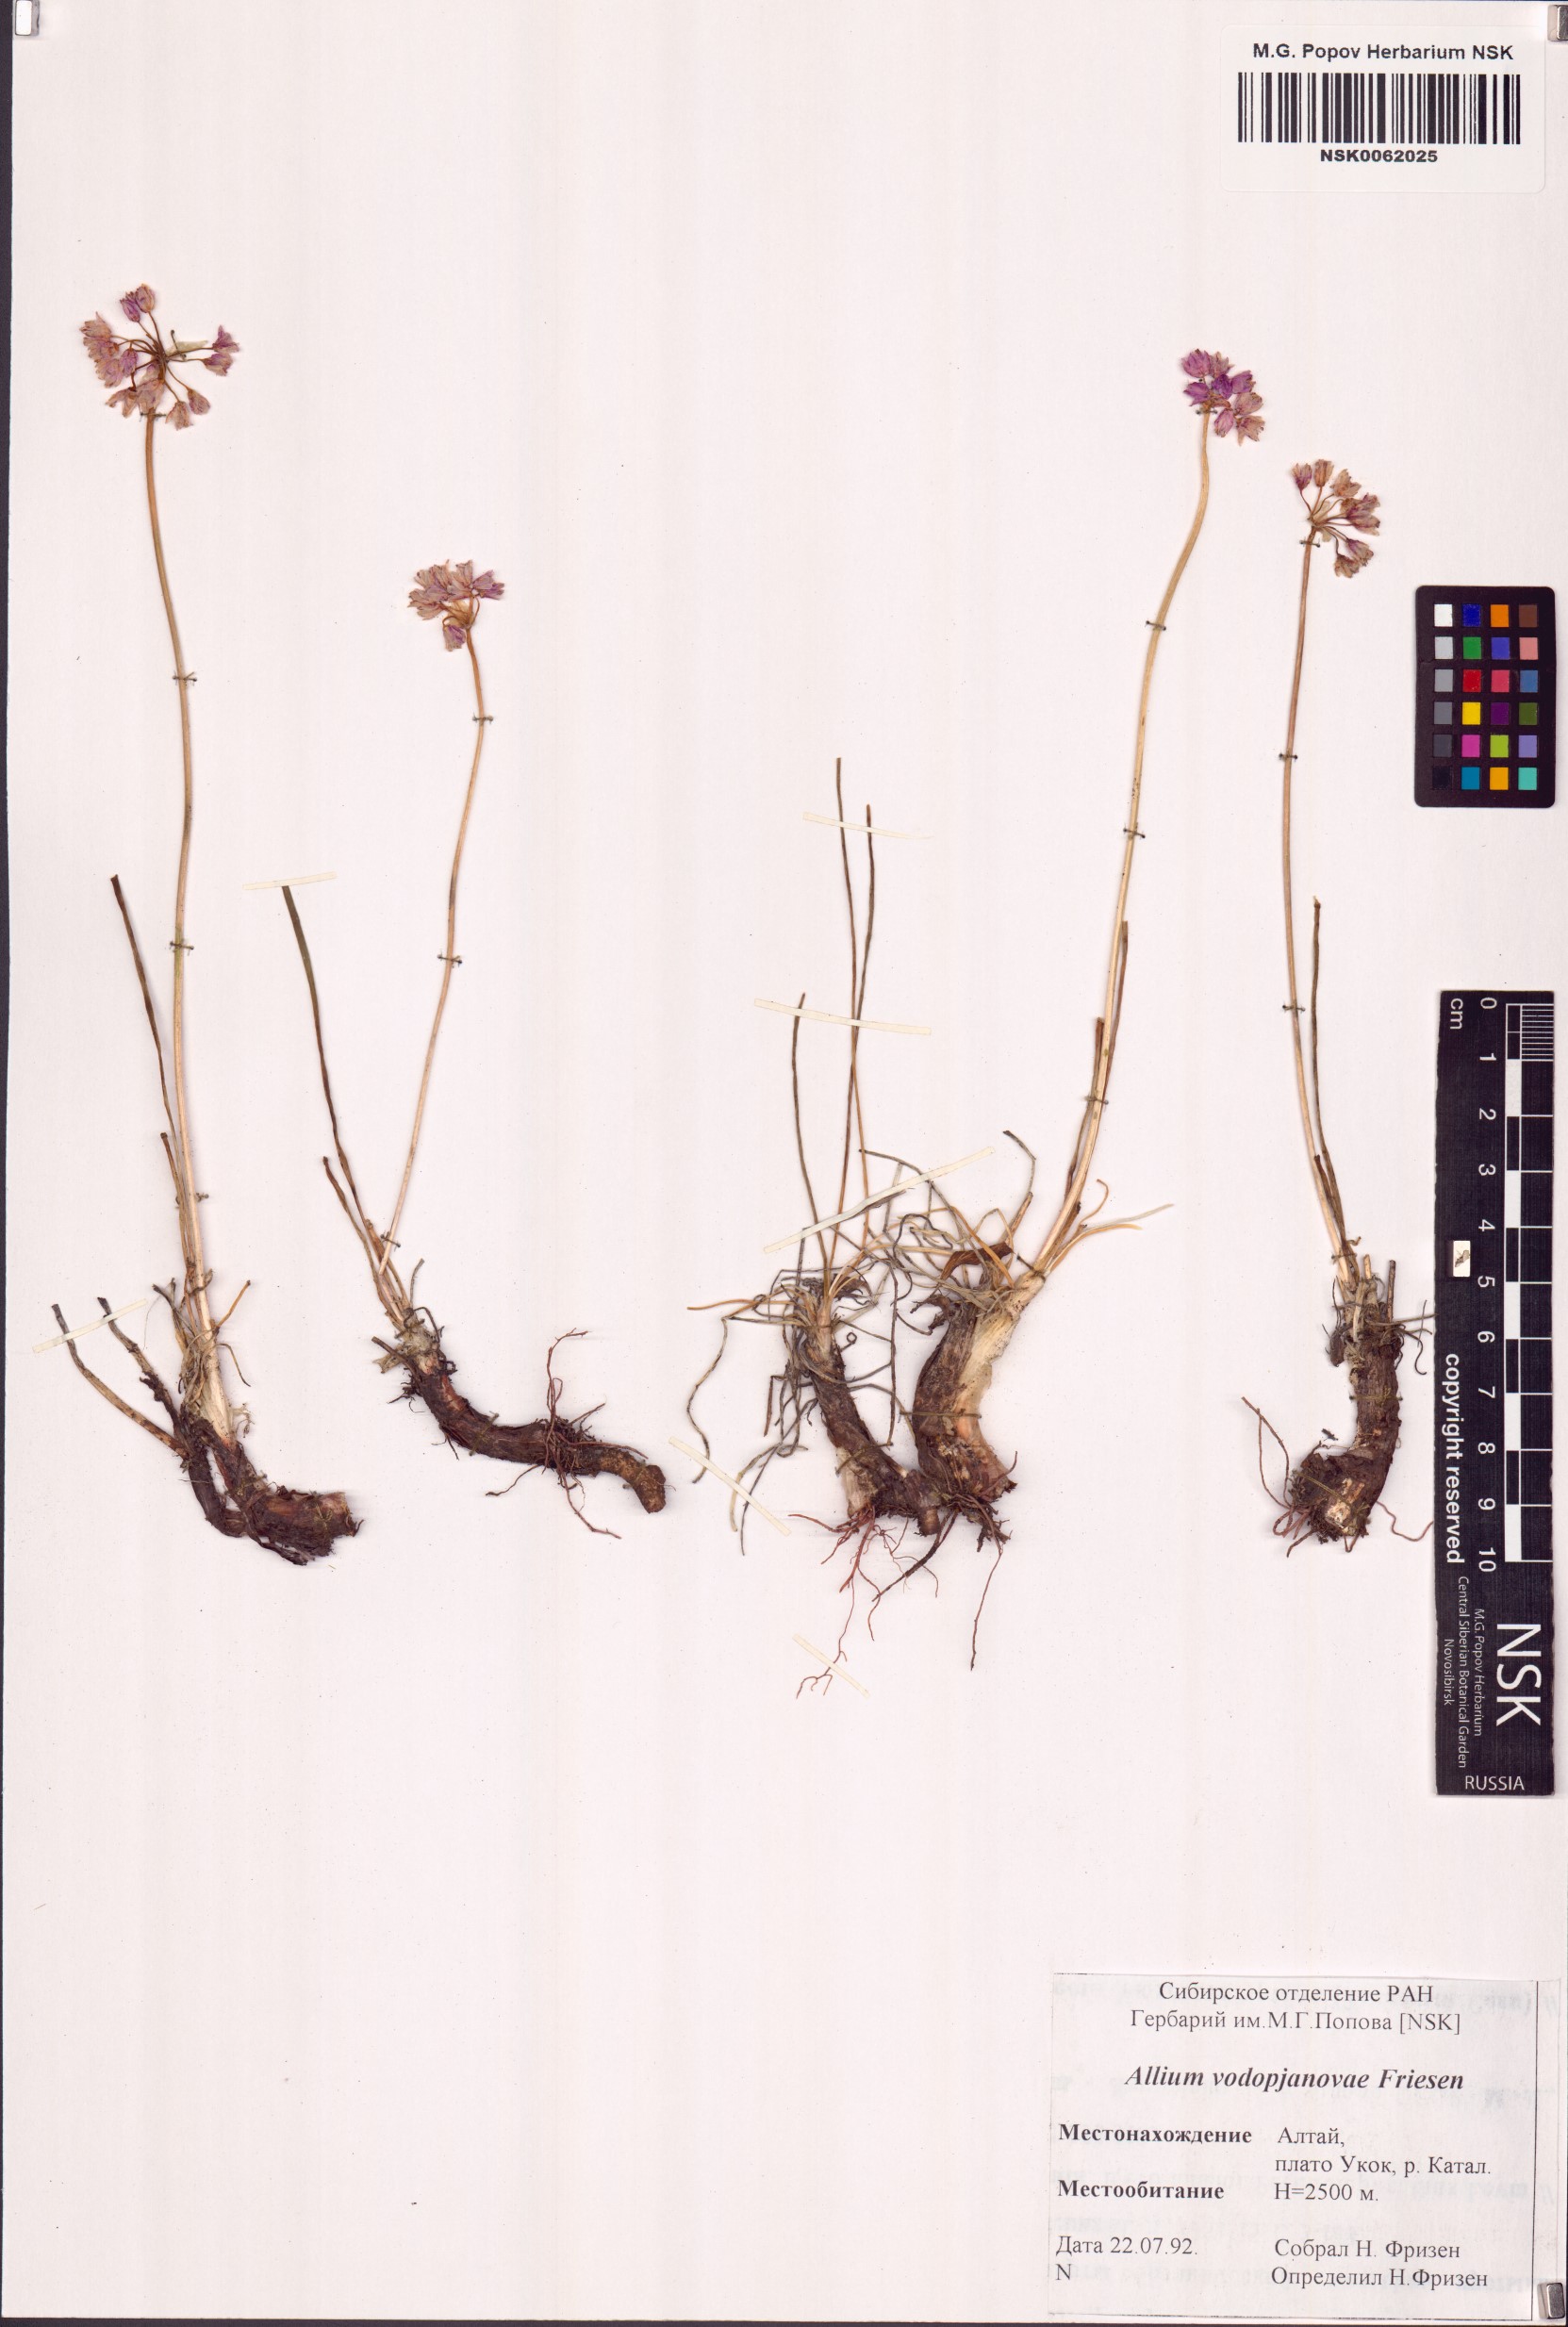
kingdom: Plantae
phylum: Tracheophyta
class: Liliopsida
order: Asparagales
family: Amaryllidaceae
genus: Allium
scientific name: Allium vodopjanovae
